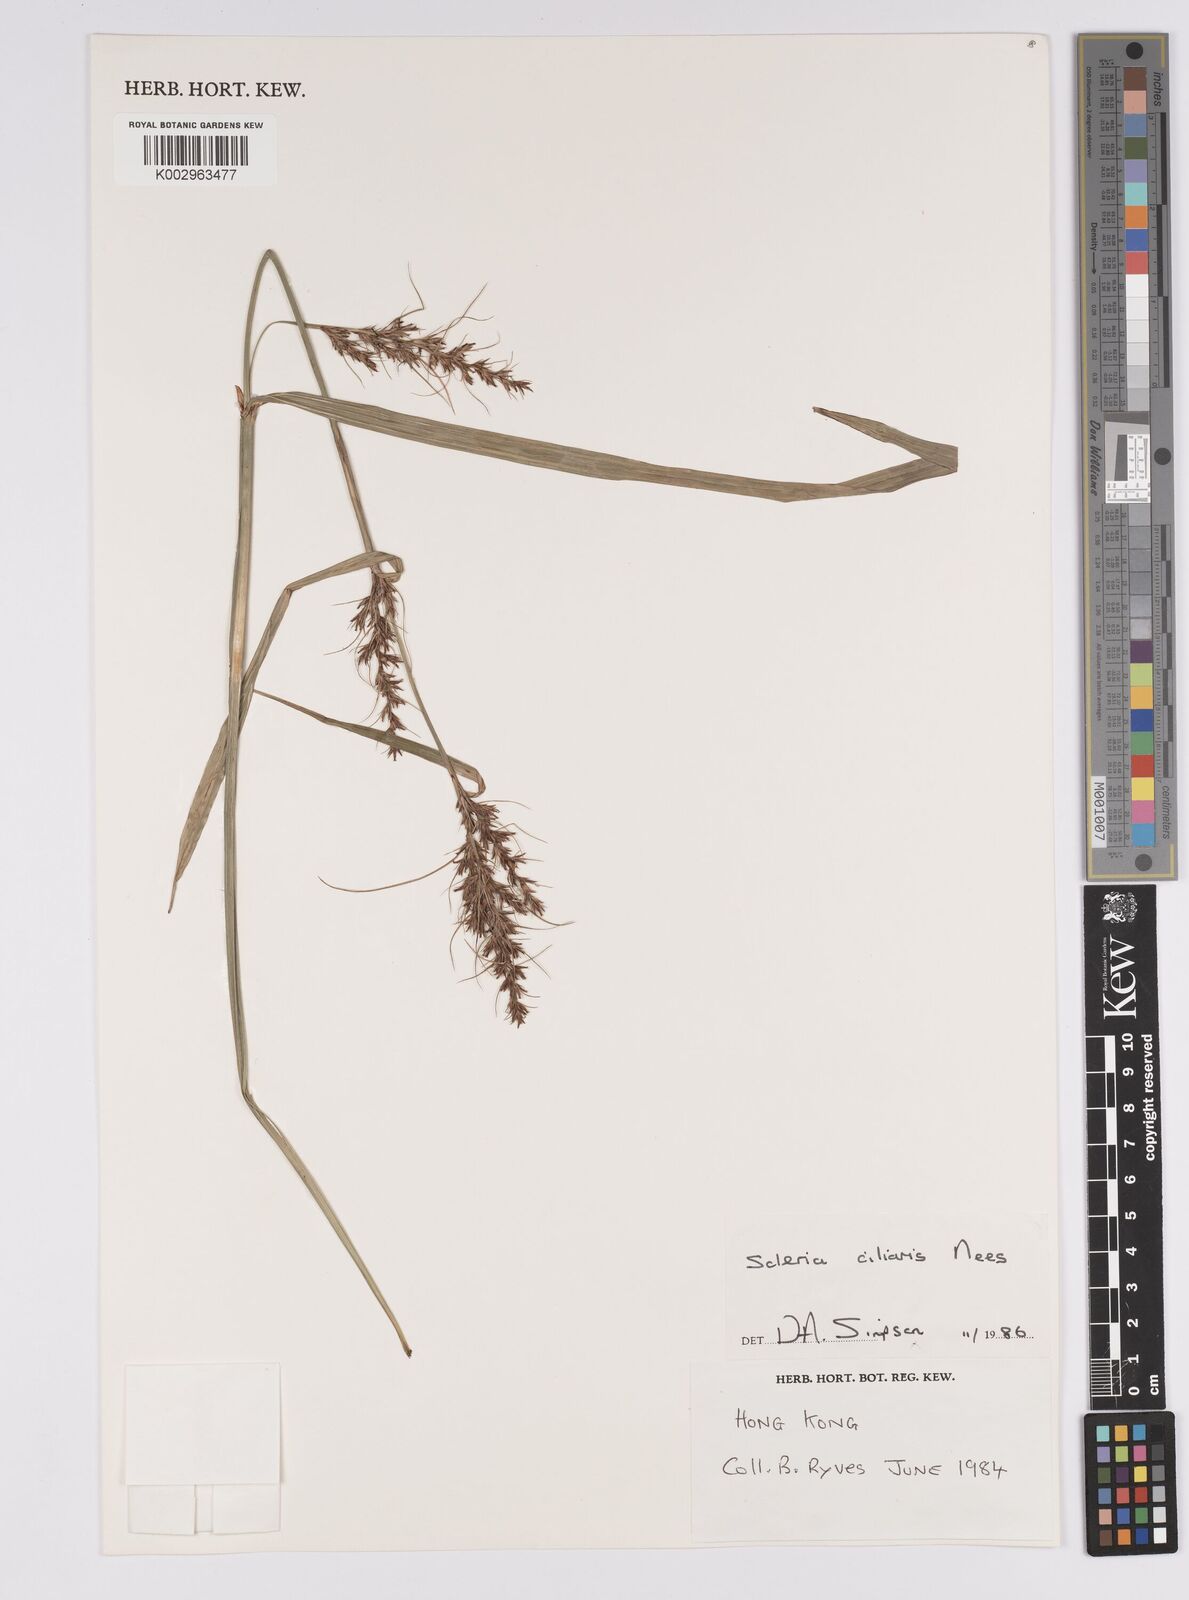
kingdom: Plantae
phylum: Tracheophyta
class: Liliopsida
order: Poales
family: Cyperaceae
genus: Scleria
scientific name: Scleria ciliaris
